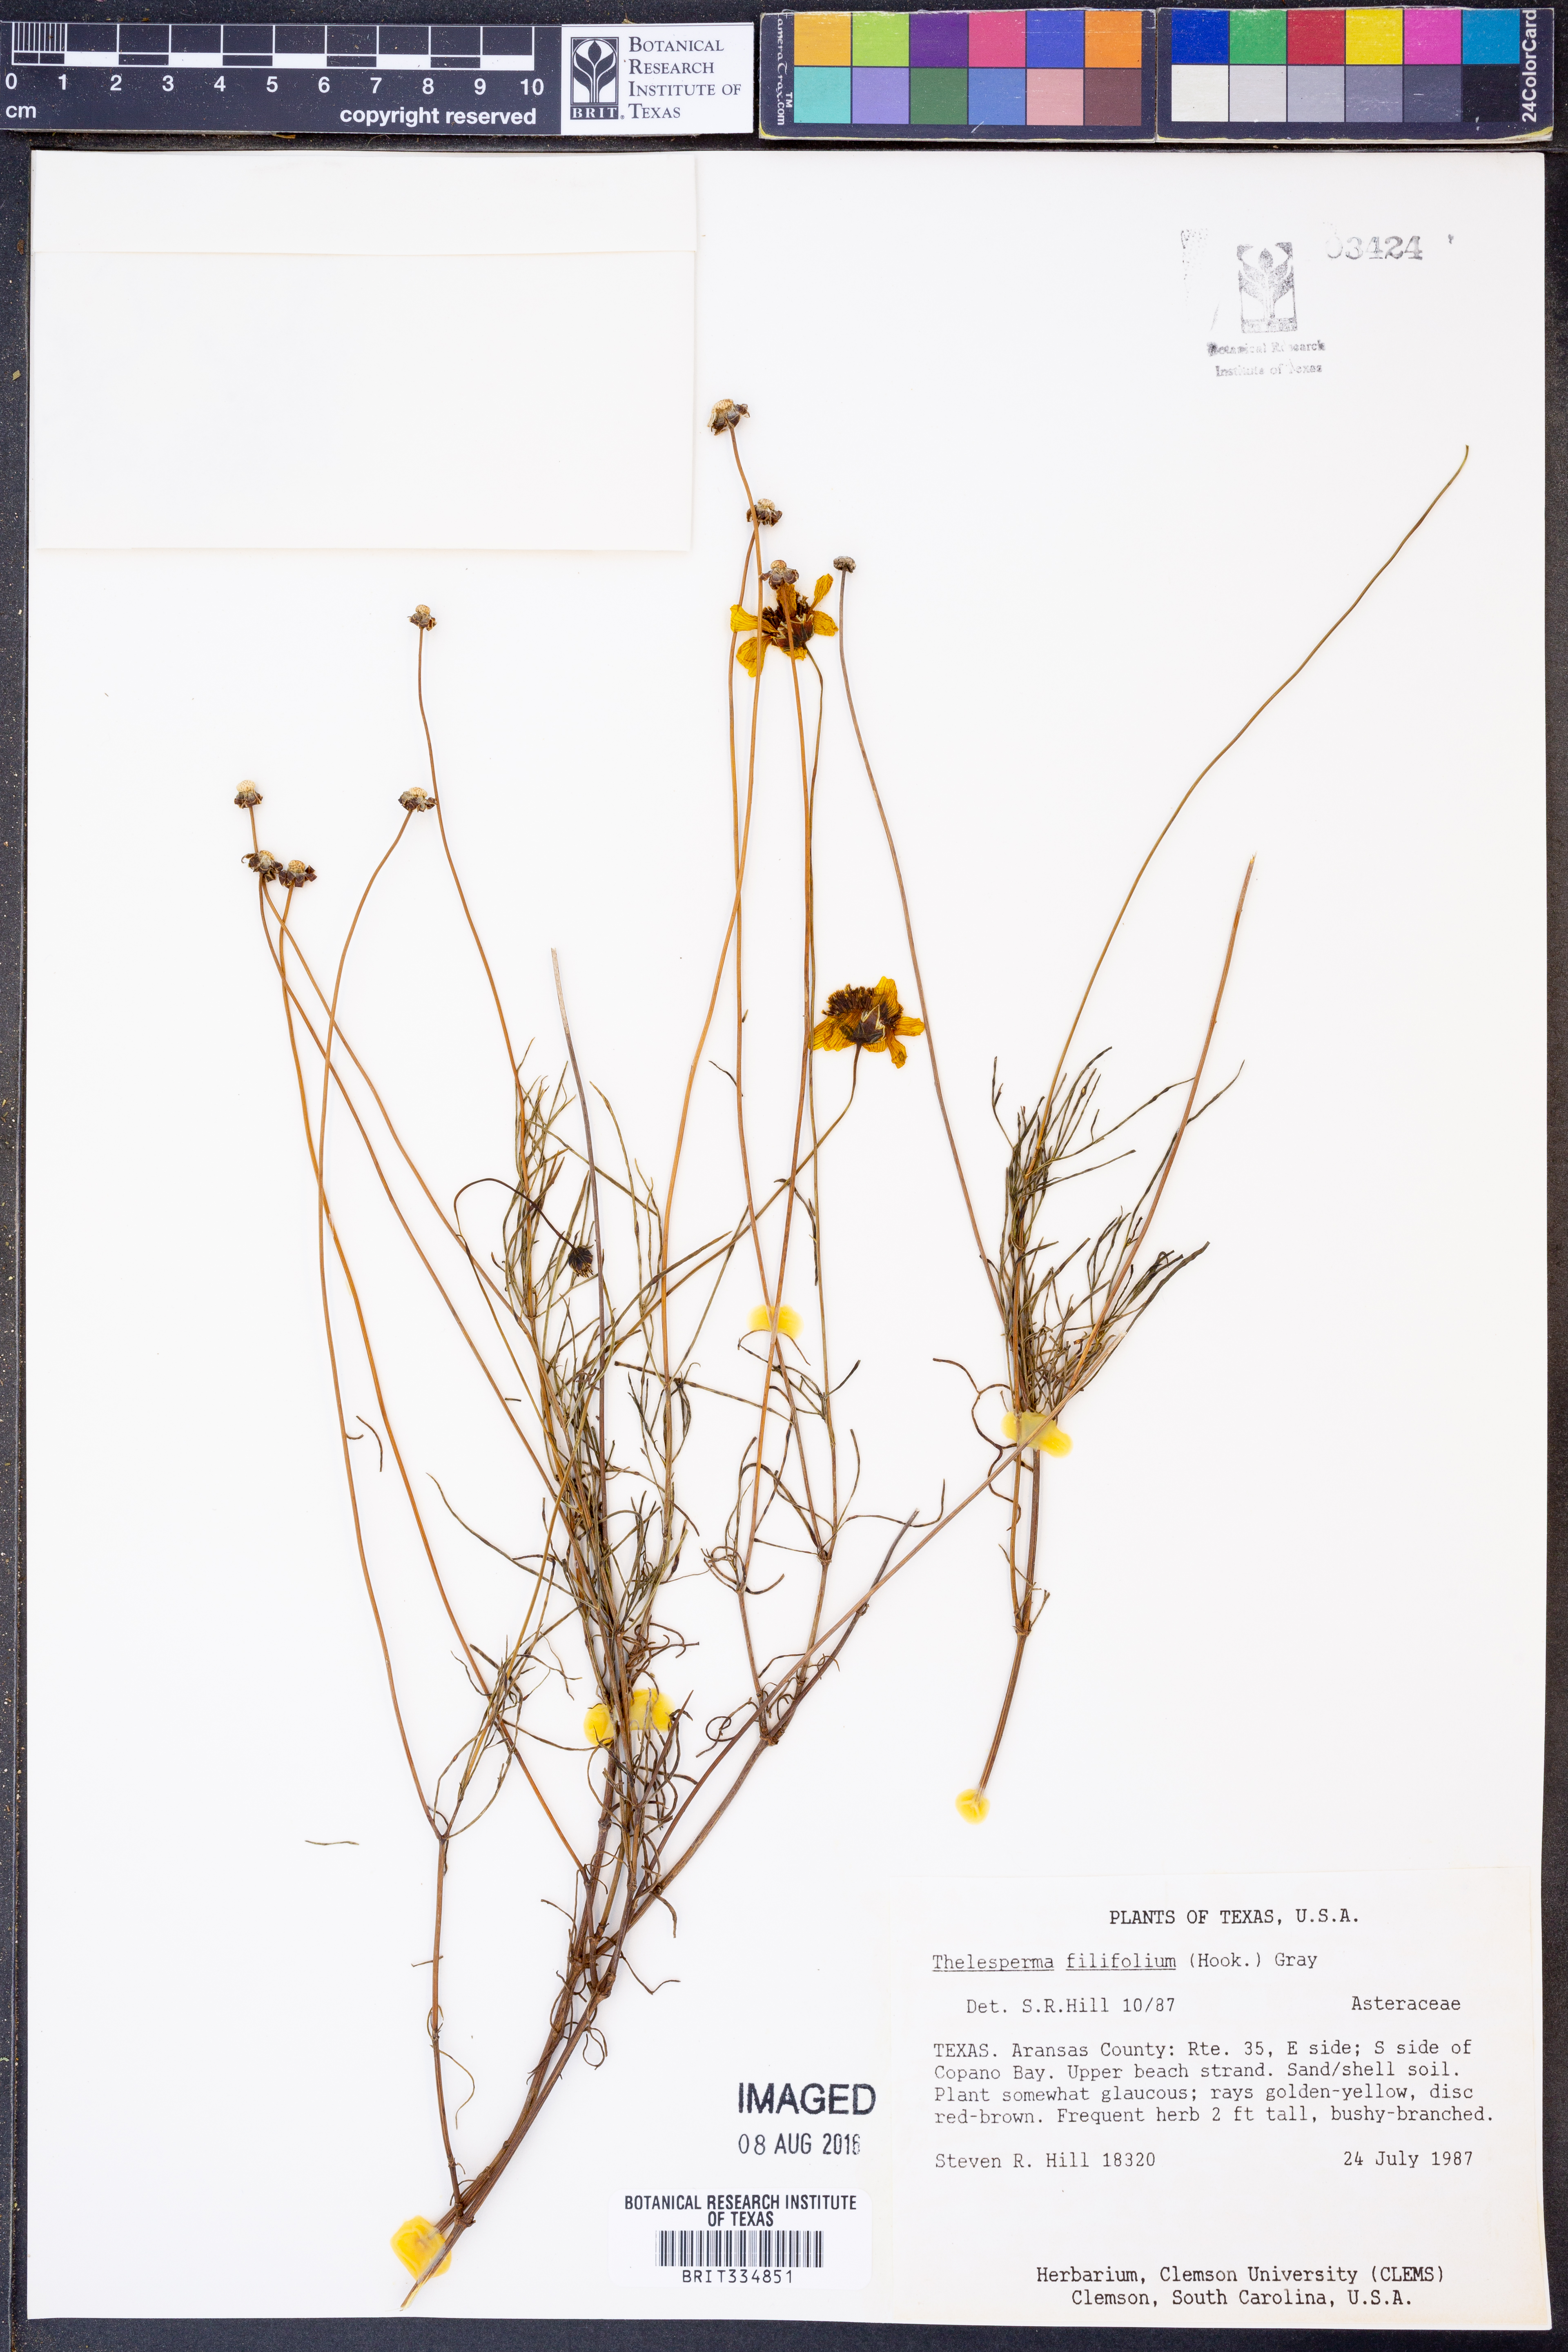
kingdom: Plantae
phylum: Tracheophyta
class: Magnoliopsida
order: Asterales
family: Asteraceae
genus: Thelesperma
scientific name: Thelesperma filifolium
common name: Stiff greenthread
